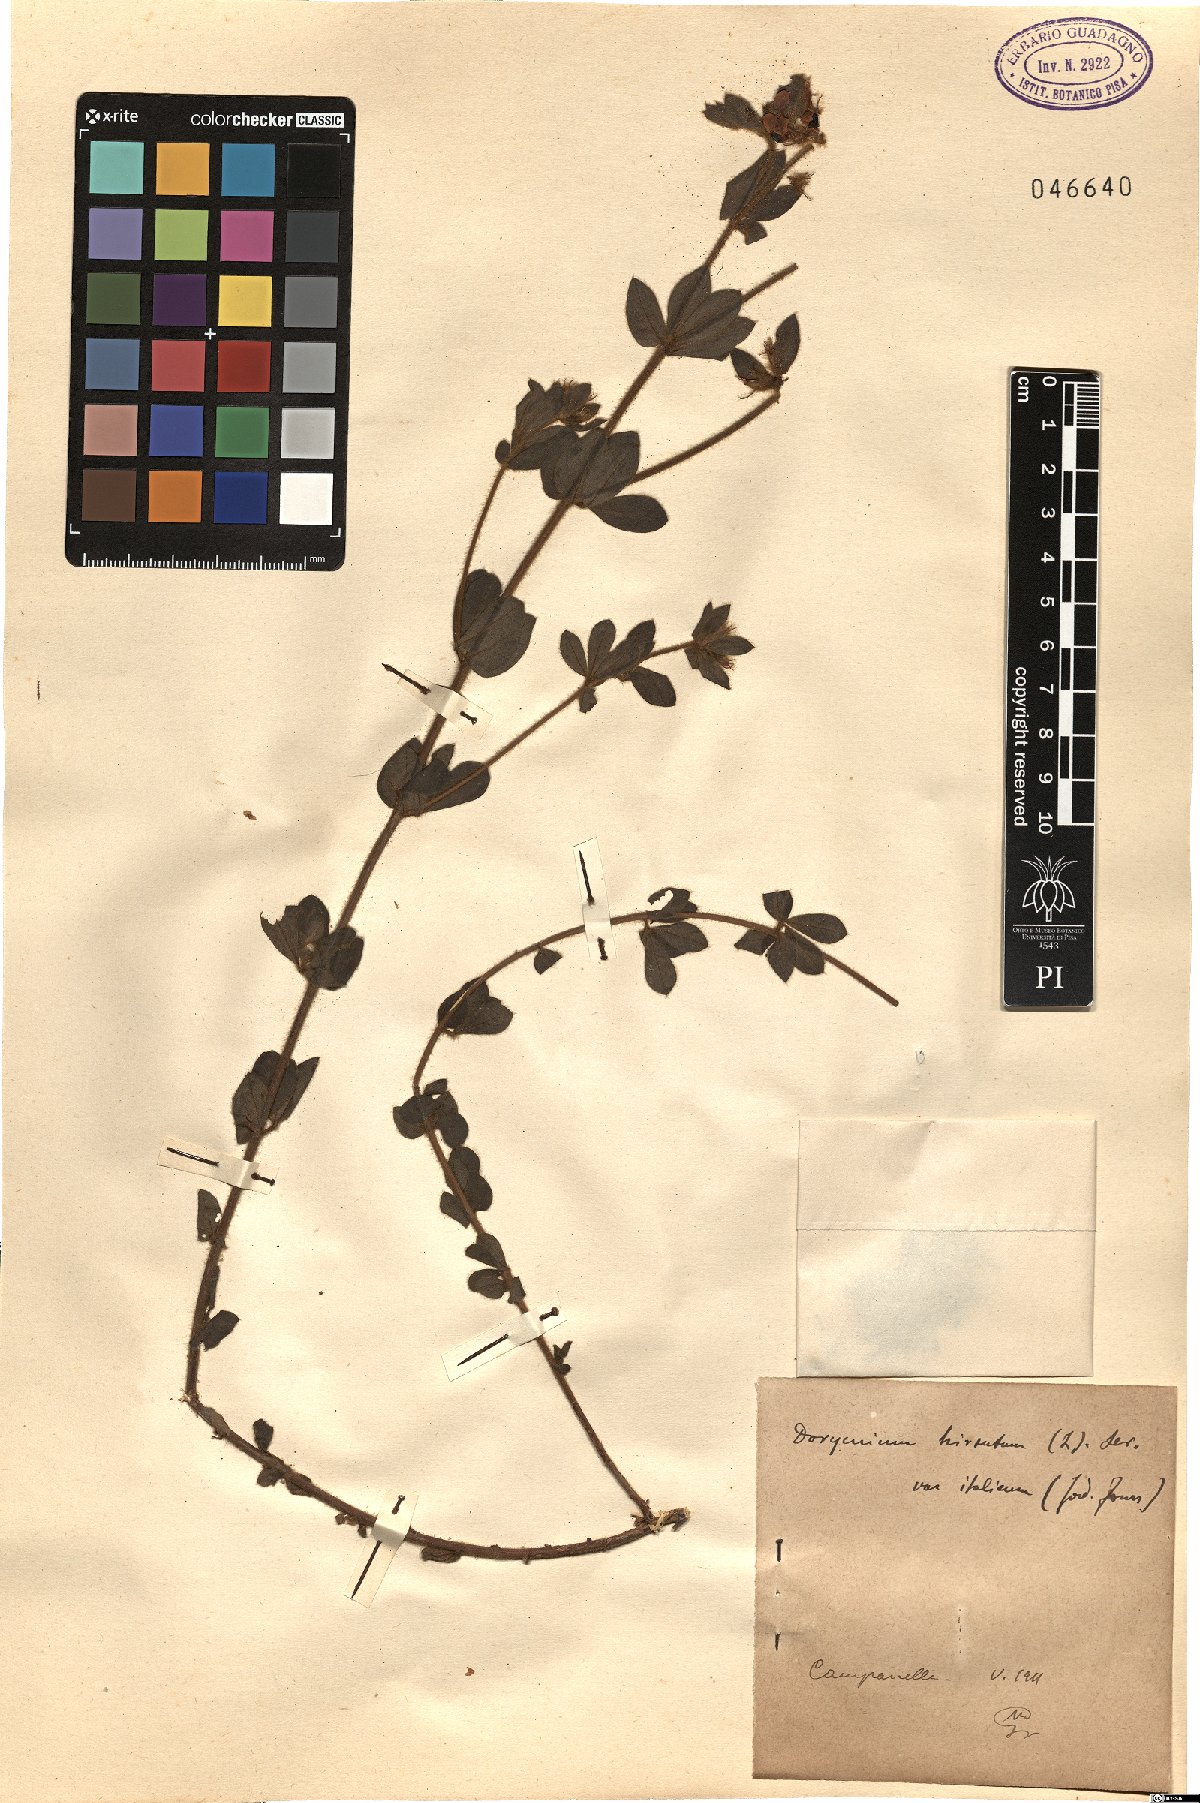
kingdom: Plantae
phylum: Tracheophyta
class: Magnoliopsida
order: Fabales
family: Fabaceae
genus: Lotus
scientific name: Lotus hirsutus
